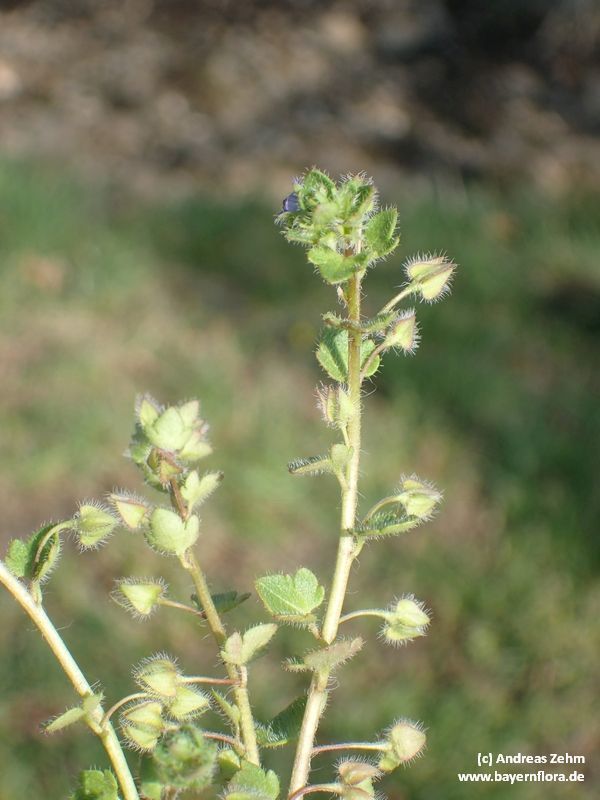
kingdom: Plantae
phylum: Tracheophyta
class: Magnoliopsida
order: Lamiales
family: Plantaginaceae
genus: Veronica
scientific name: Veronica sublobata
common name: False ivy-leaved speedwell
